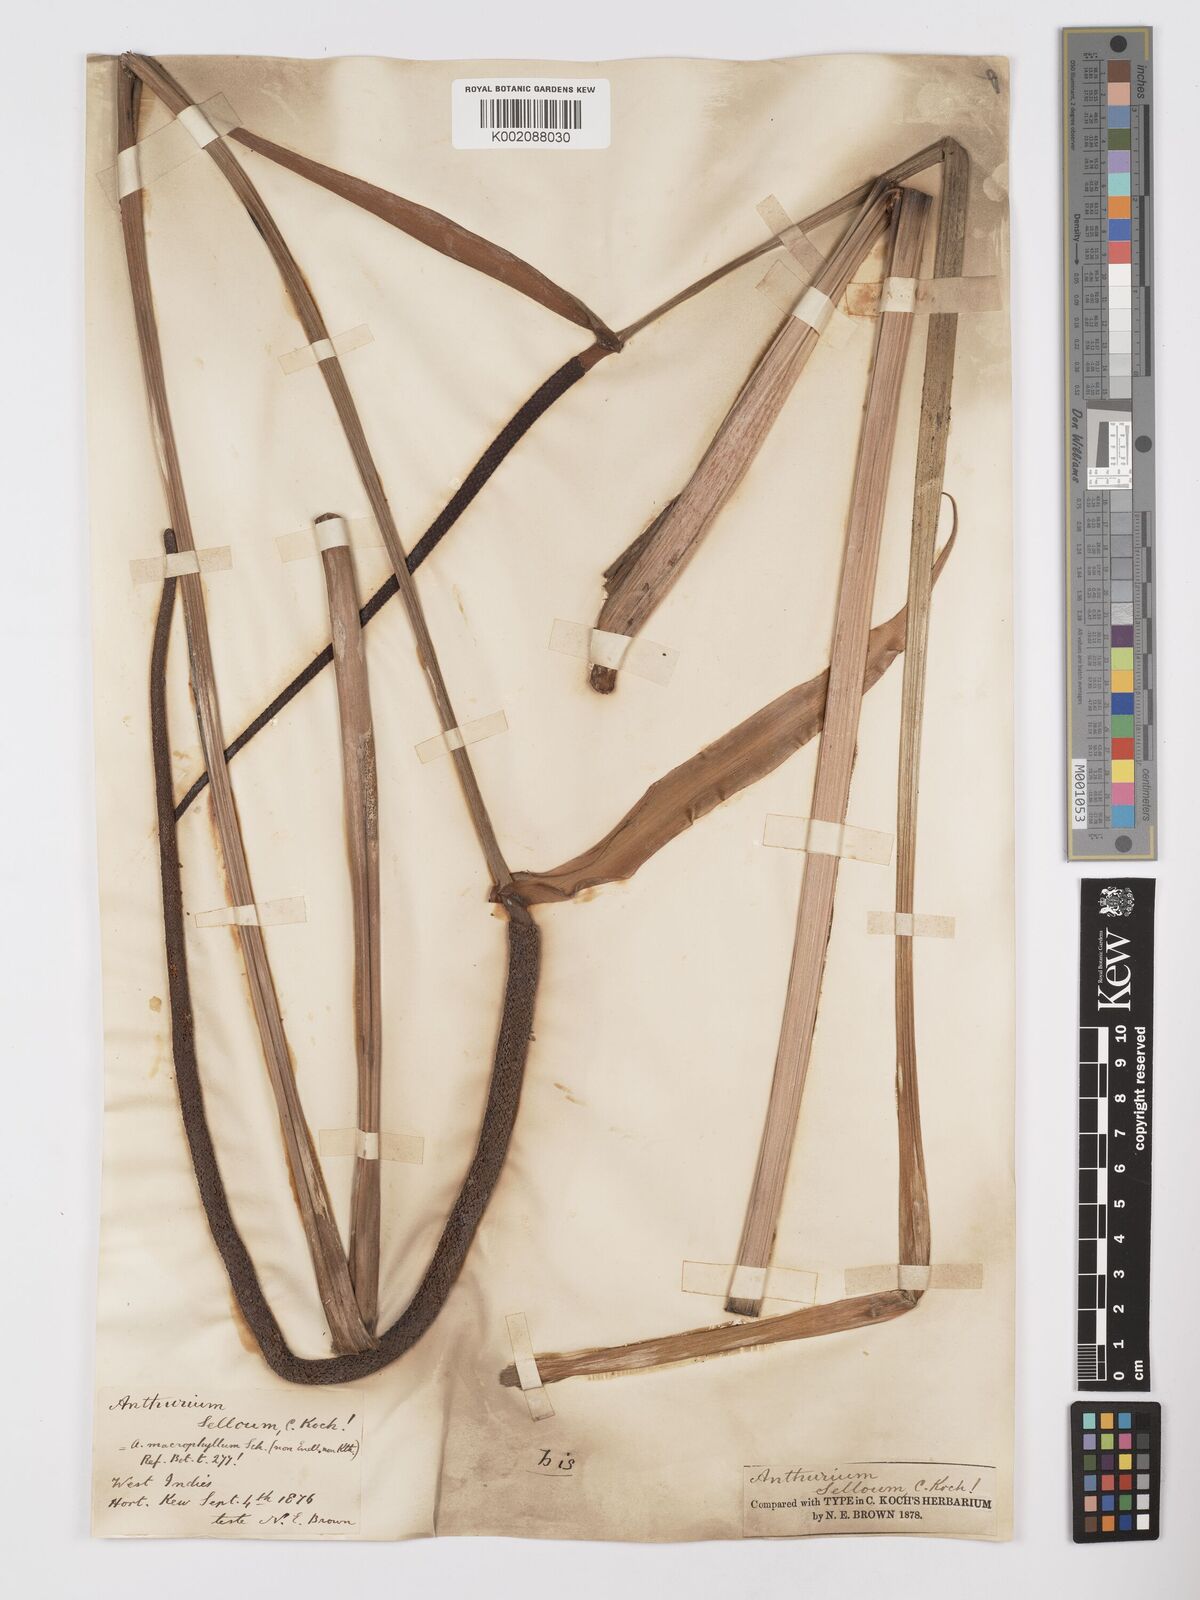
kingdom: Plantae
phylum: Tracheophyta
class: Liliopsida
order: Alismatales
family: Araceae
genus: Anthurium
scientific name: Anthurium
